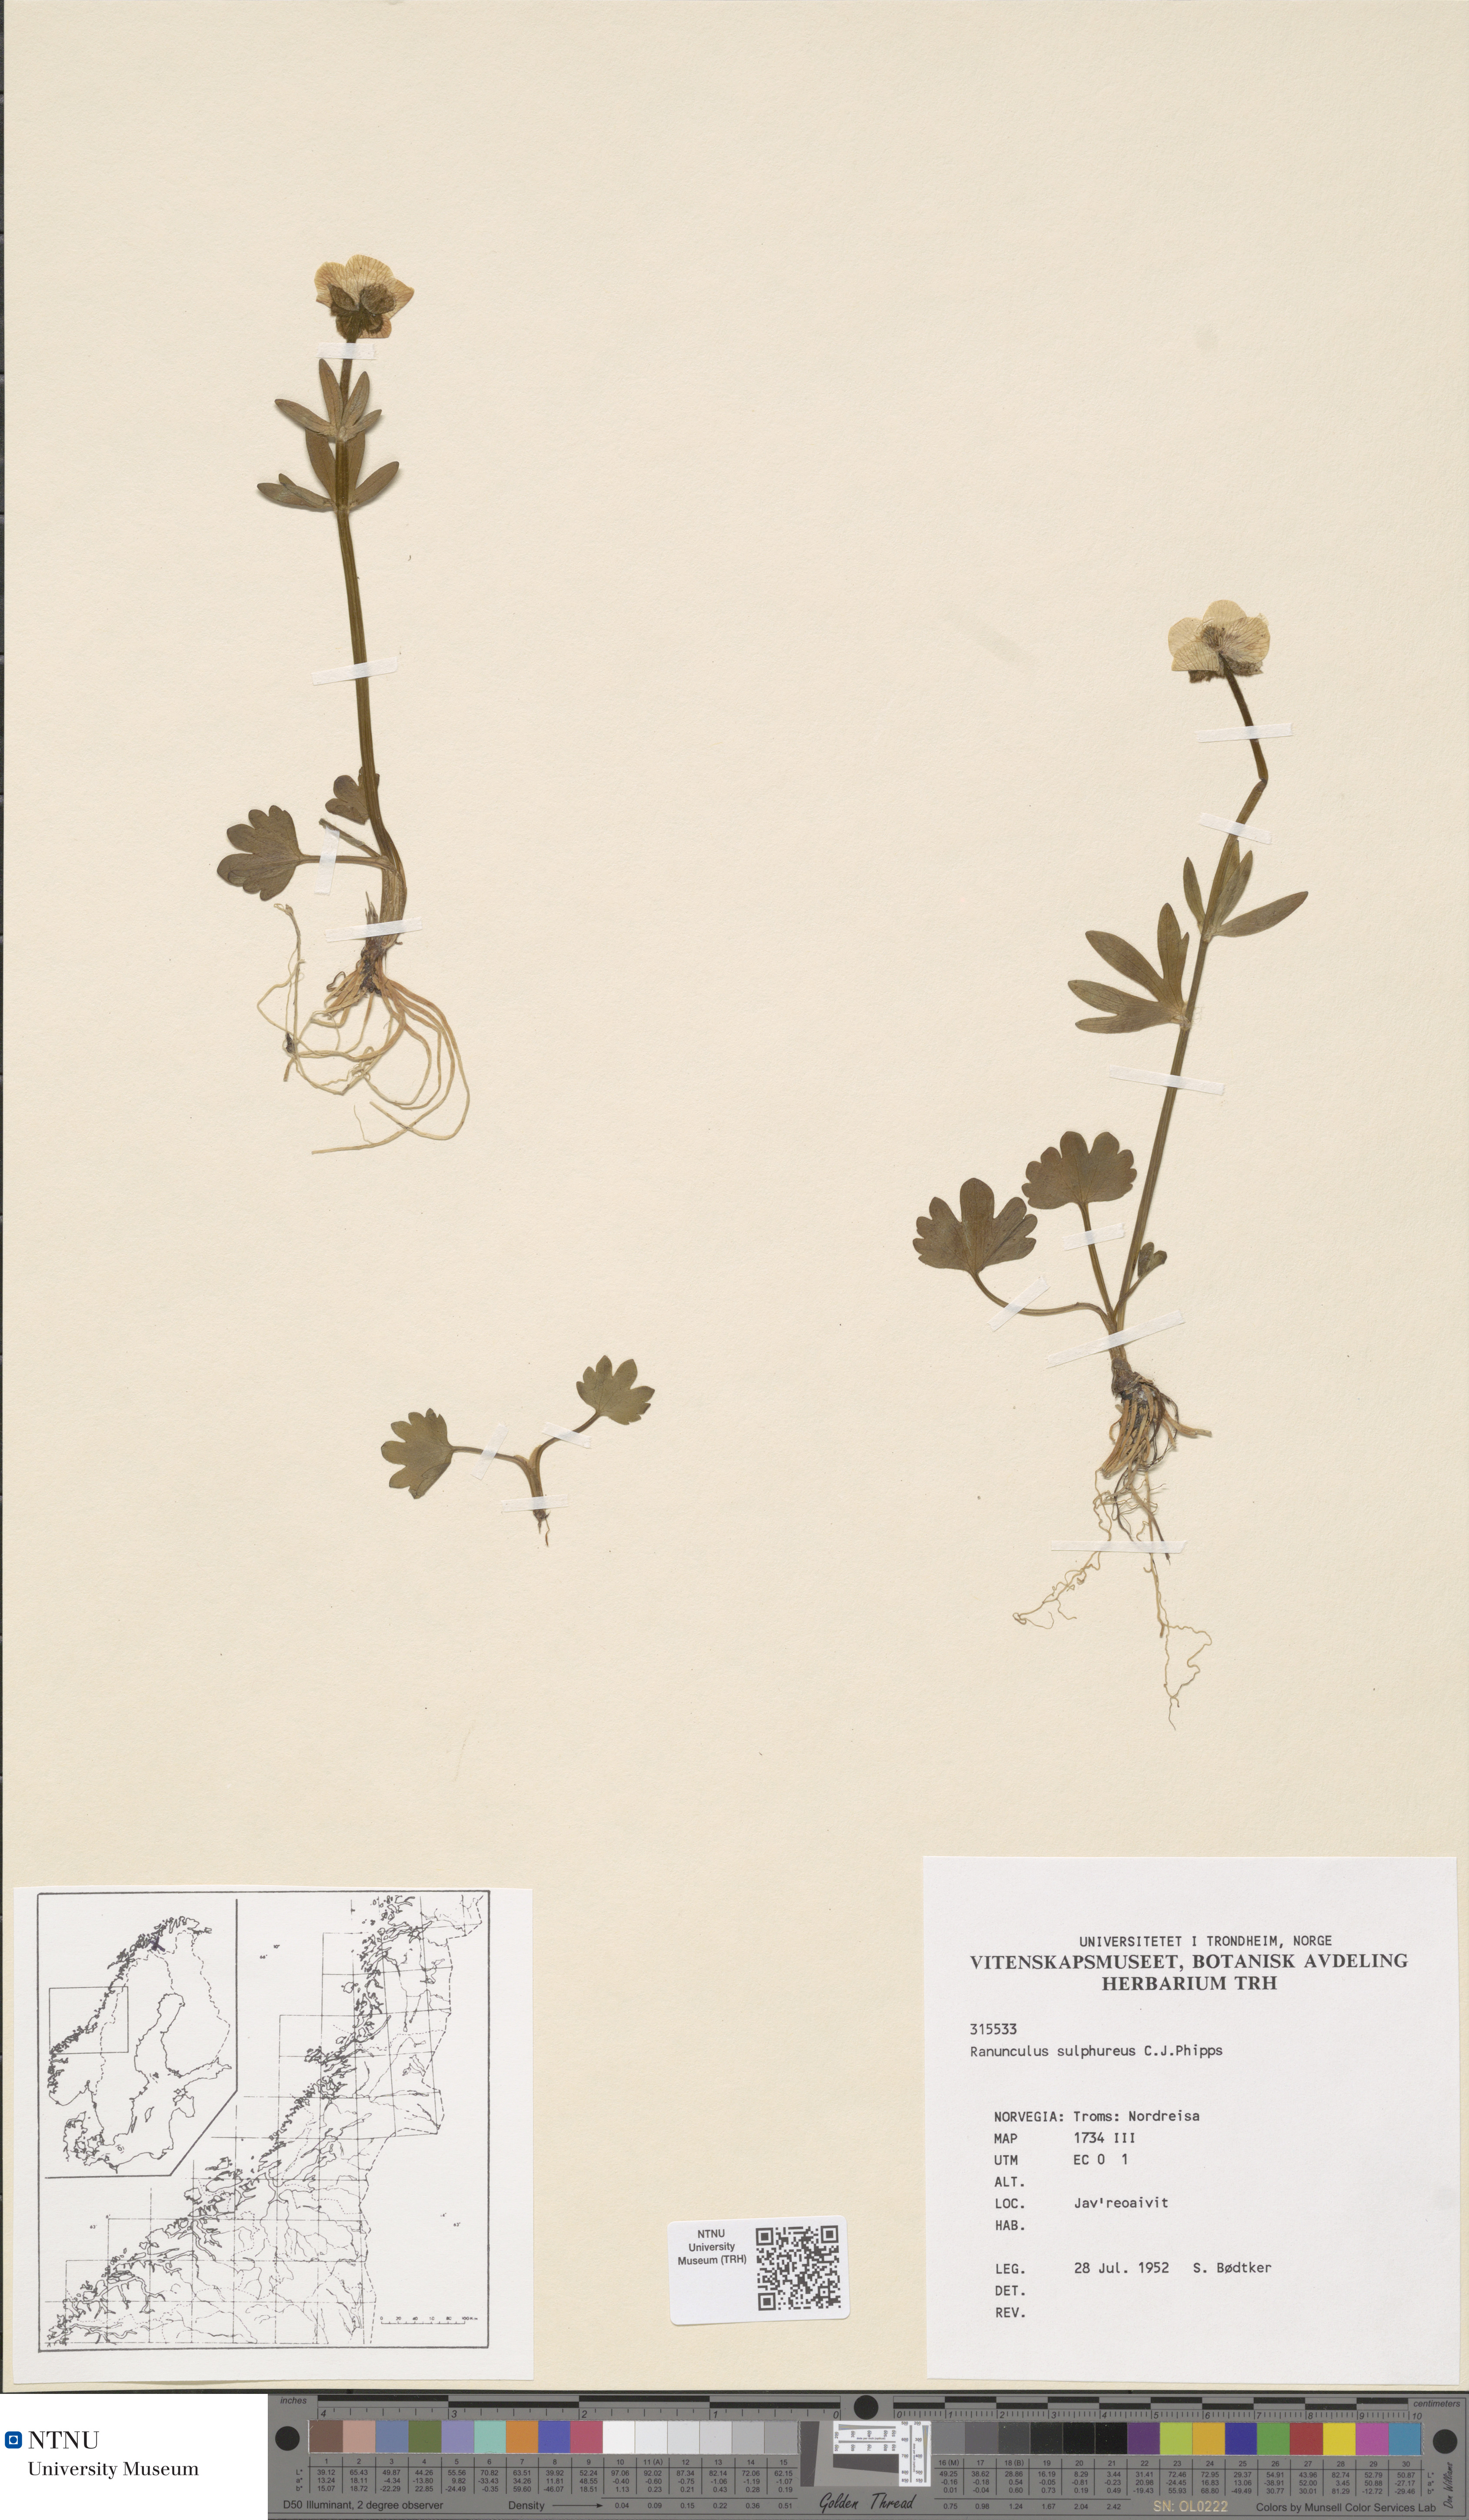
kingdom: Plantae
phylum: Tracheophyta
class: Magnoliopsida
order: Ranunculales
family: Ranunculaceae
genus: Ranunculus
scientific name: Ranunculus sulphureus
